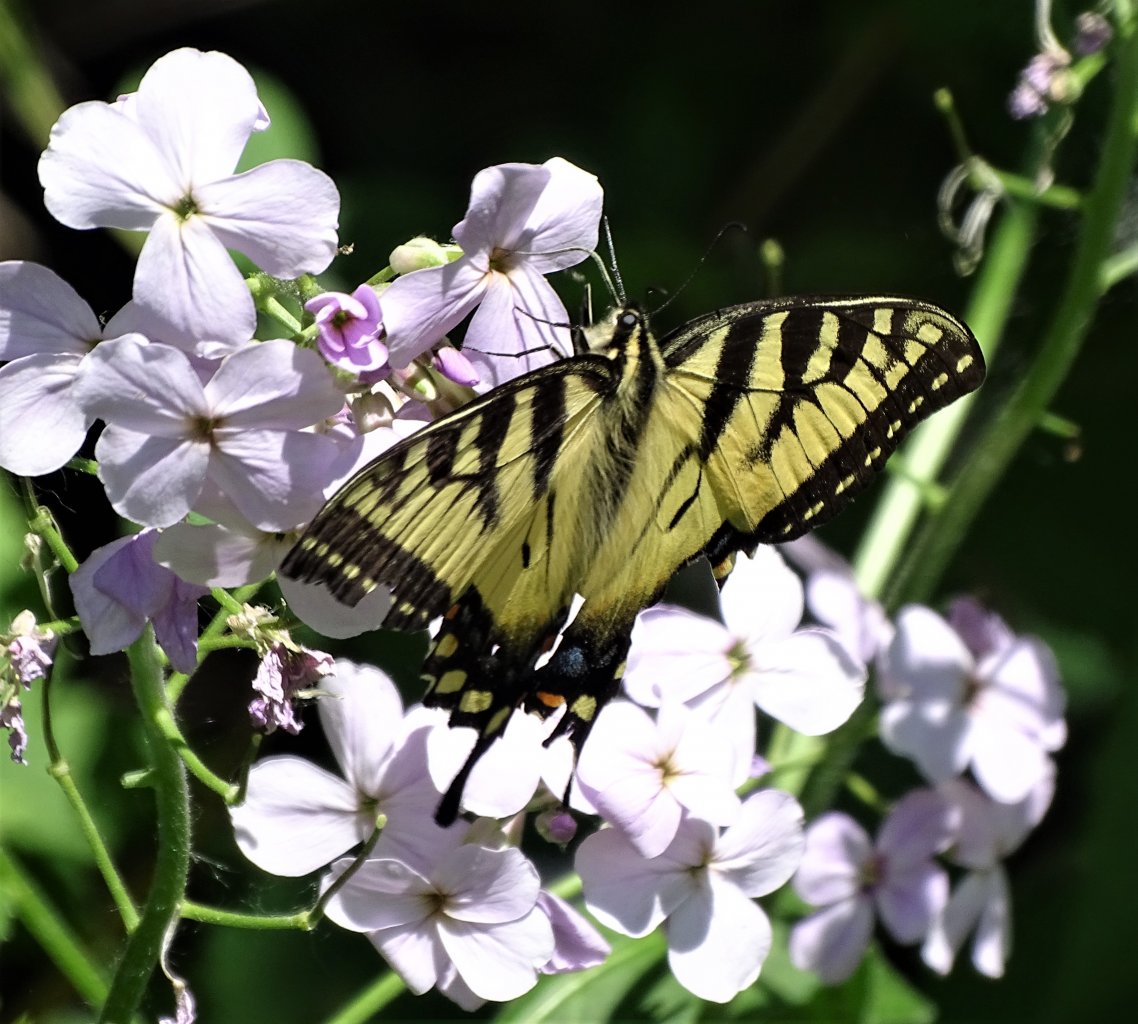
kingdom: Animalia
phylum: Arthropoda
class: Insecta
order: Lepidoptera
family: Papilionidae
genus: Pterourus
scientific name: Pterourus canadensis
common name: Canadian Tiger Swallowtail
